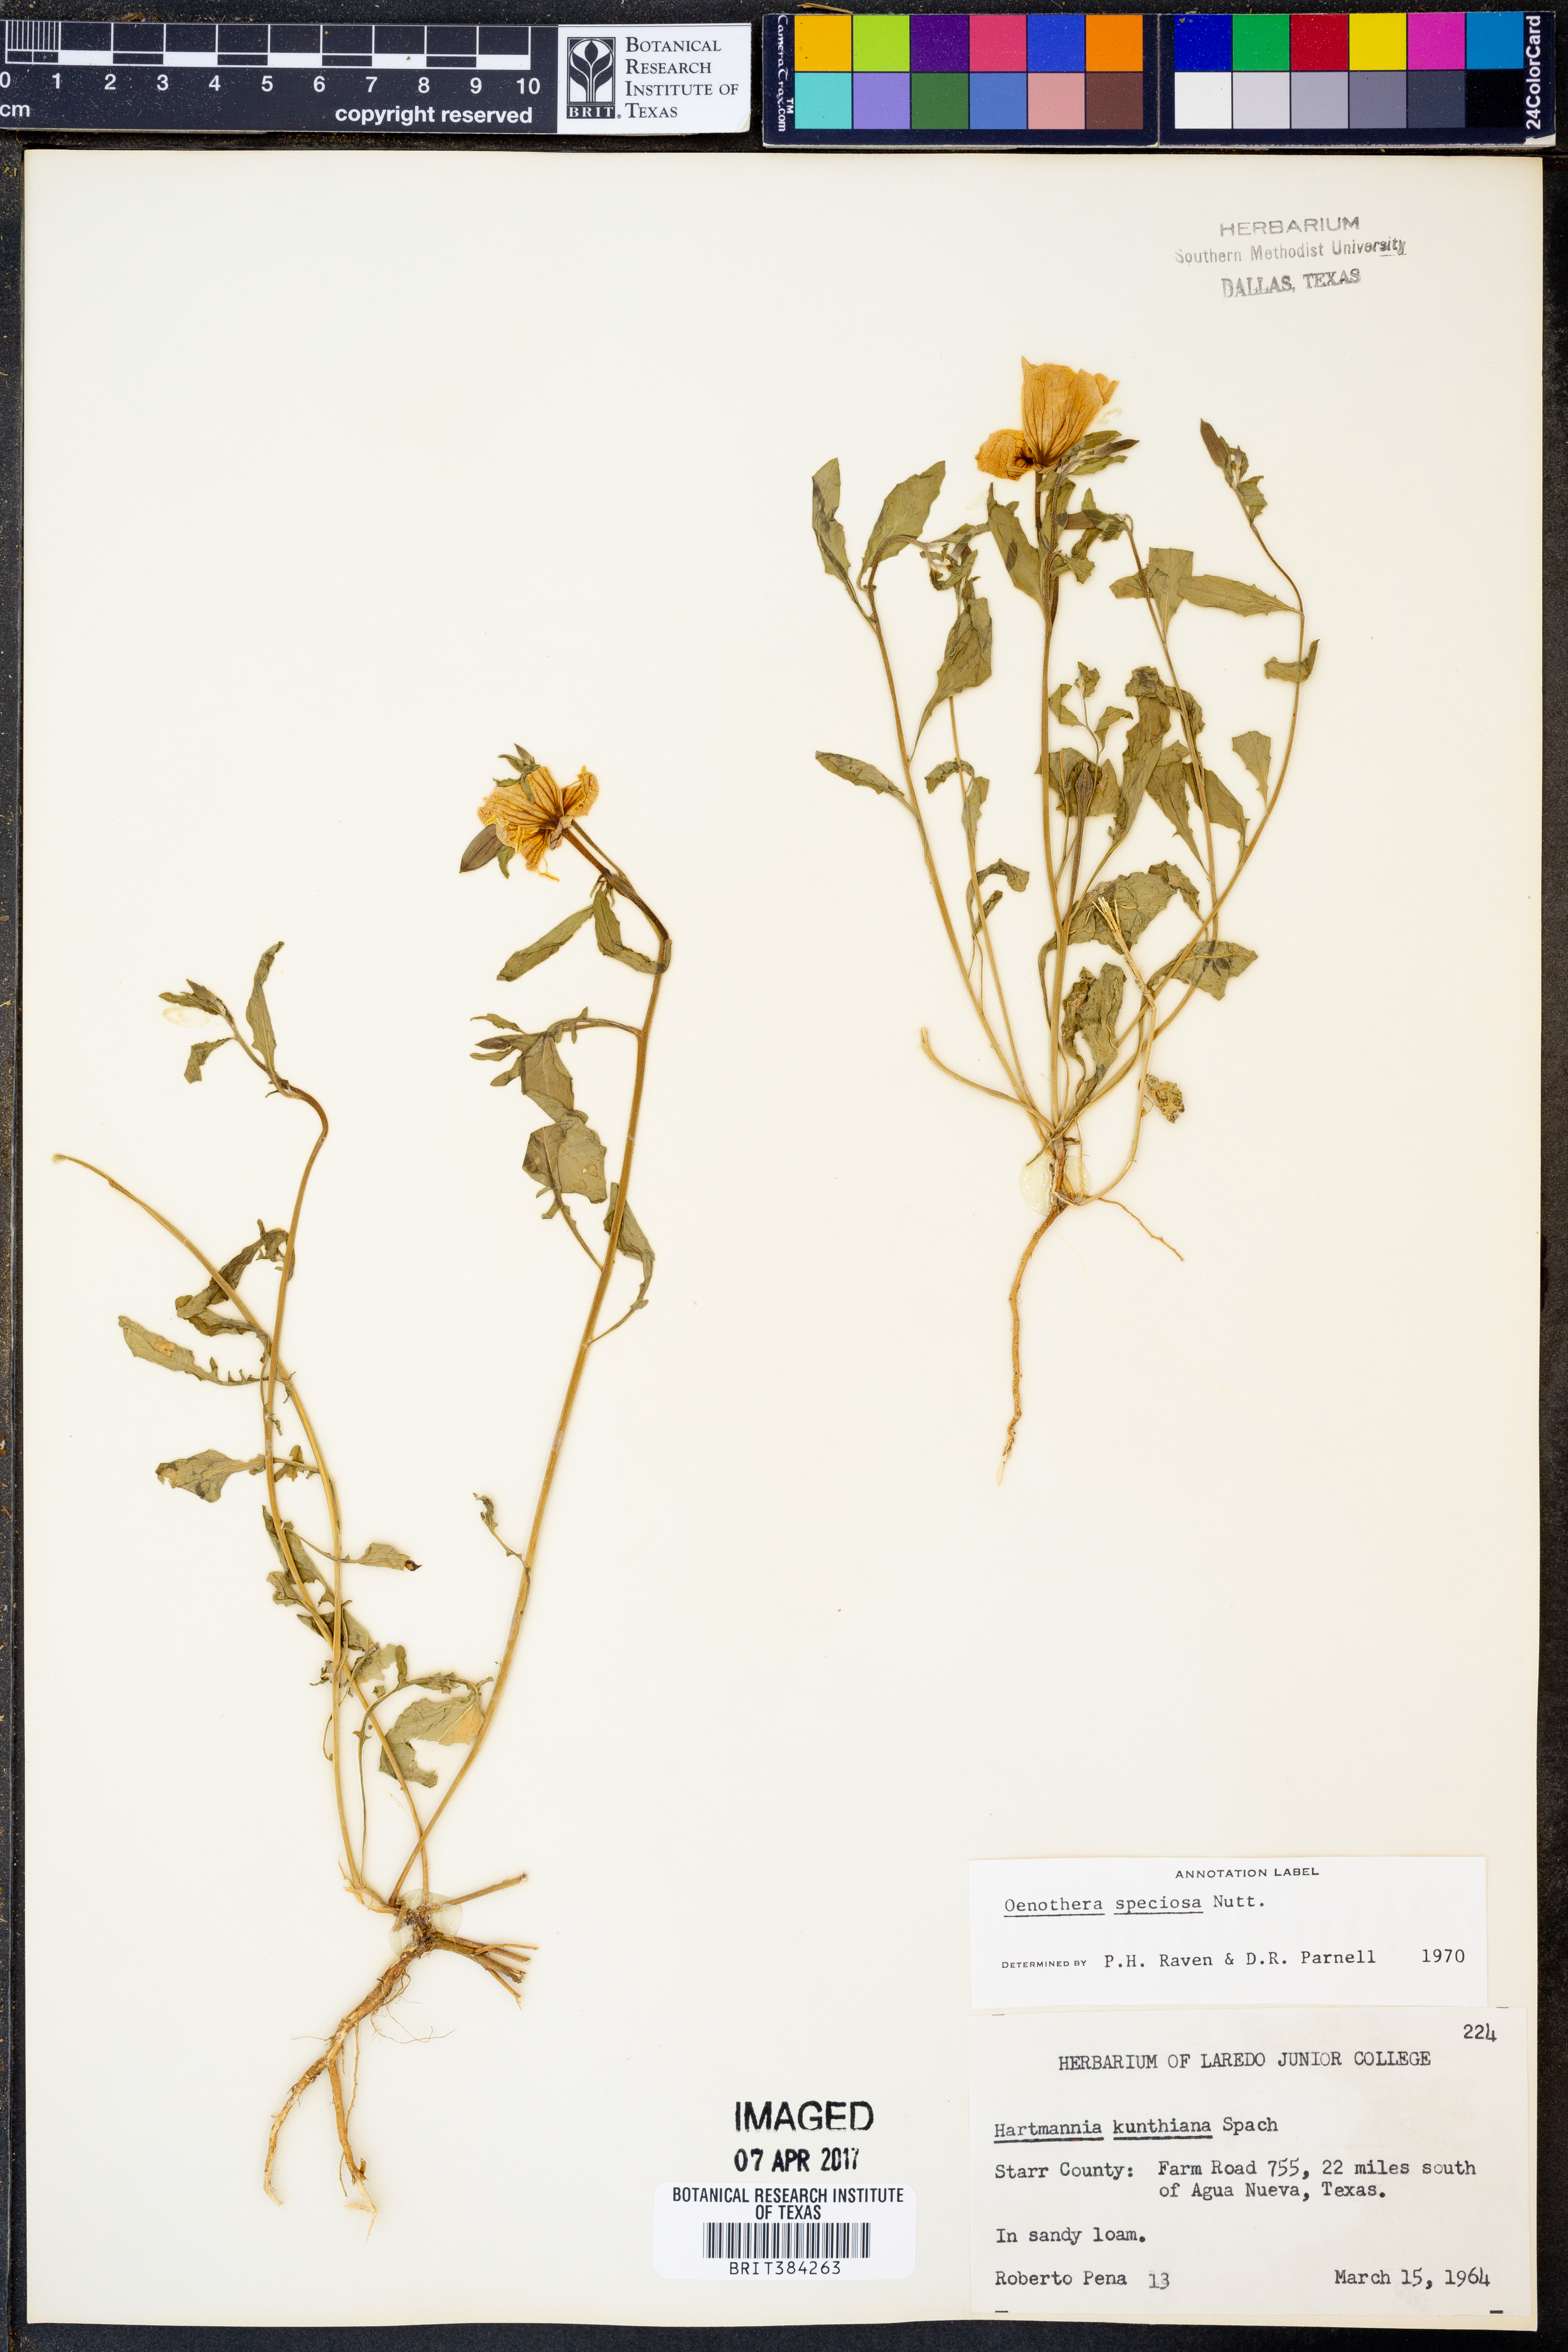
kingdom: Plantae
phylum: Tracheophyta
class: Magnoliopsida
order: Myrtales
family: Onagraceae
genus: Oenothera
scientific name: Oenothera speciosa
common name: White evening-primrose
